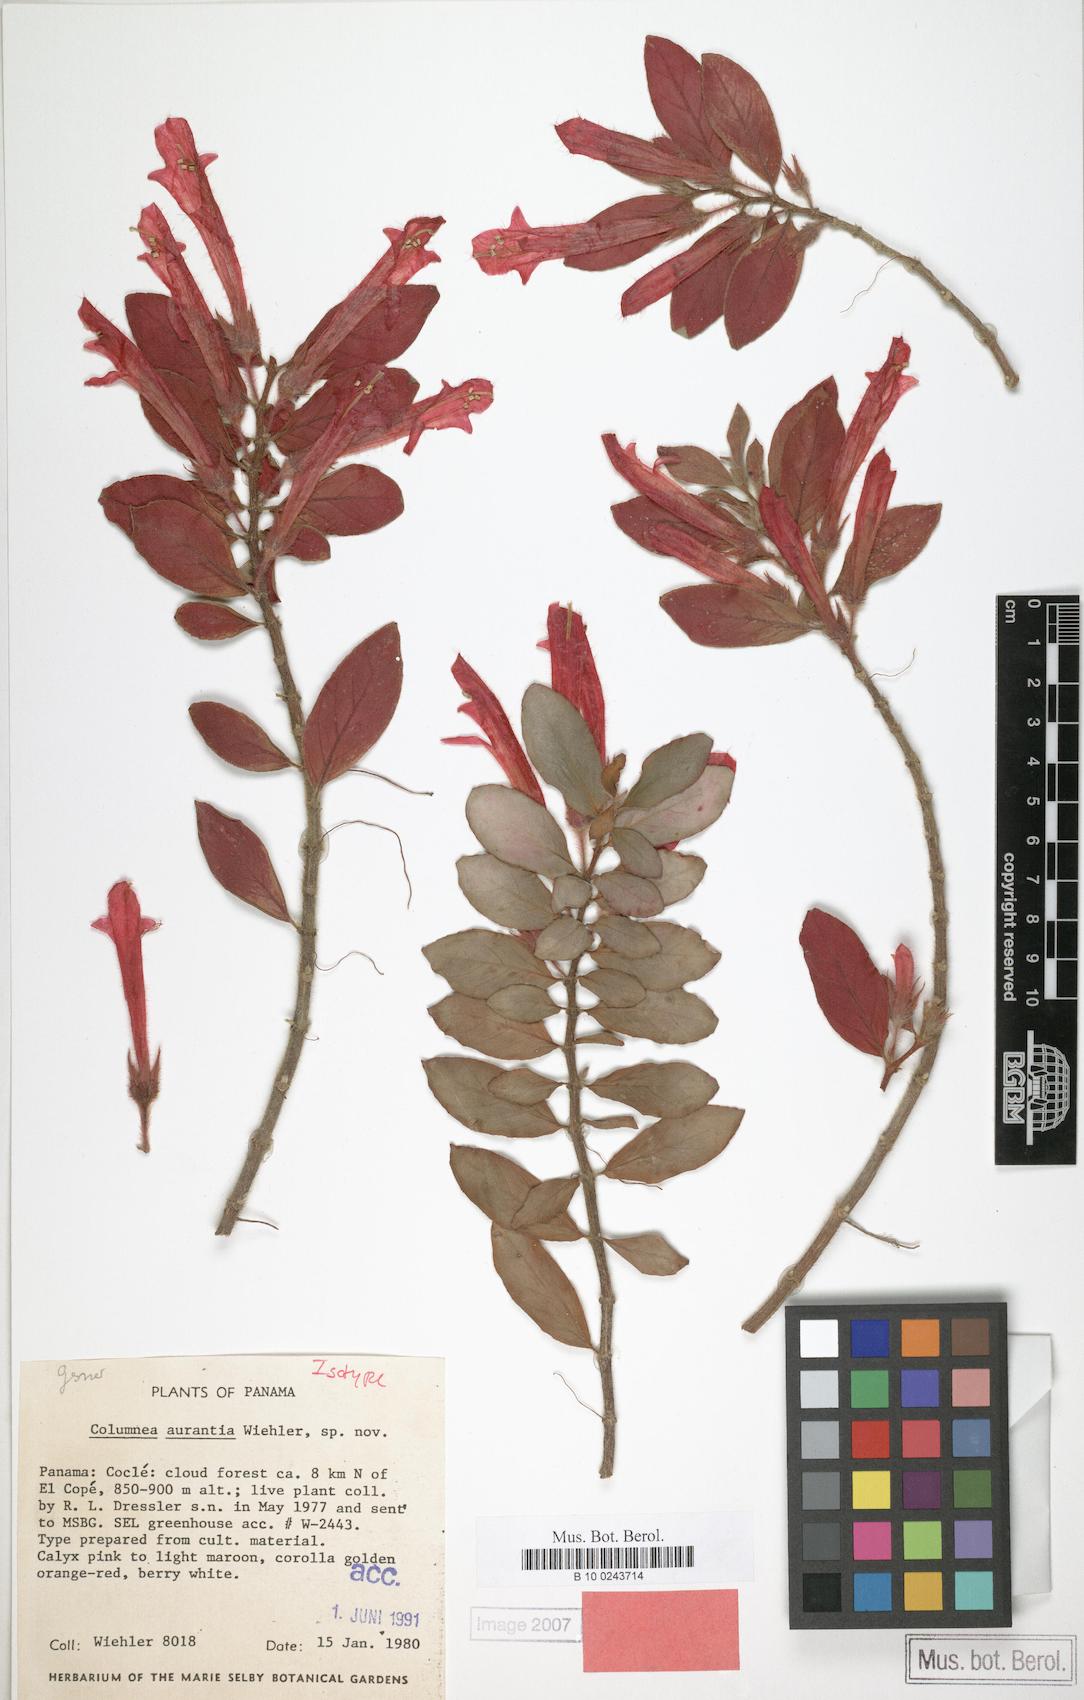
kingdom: Plantae
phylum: Tracheophyta
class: Magnoliopsida
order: Lamiales
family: Gesneriaceae
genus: Columnea
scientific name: Columnea aurantia
